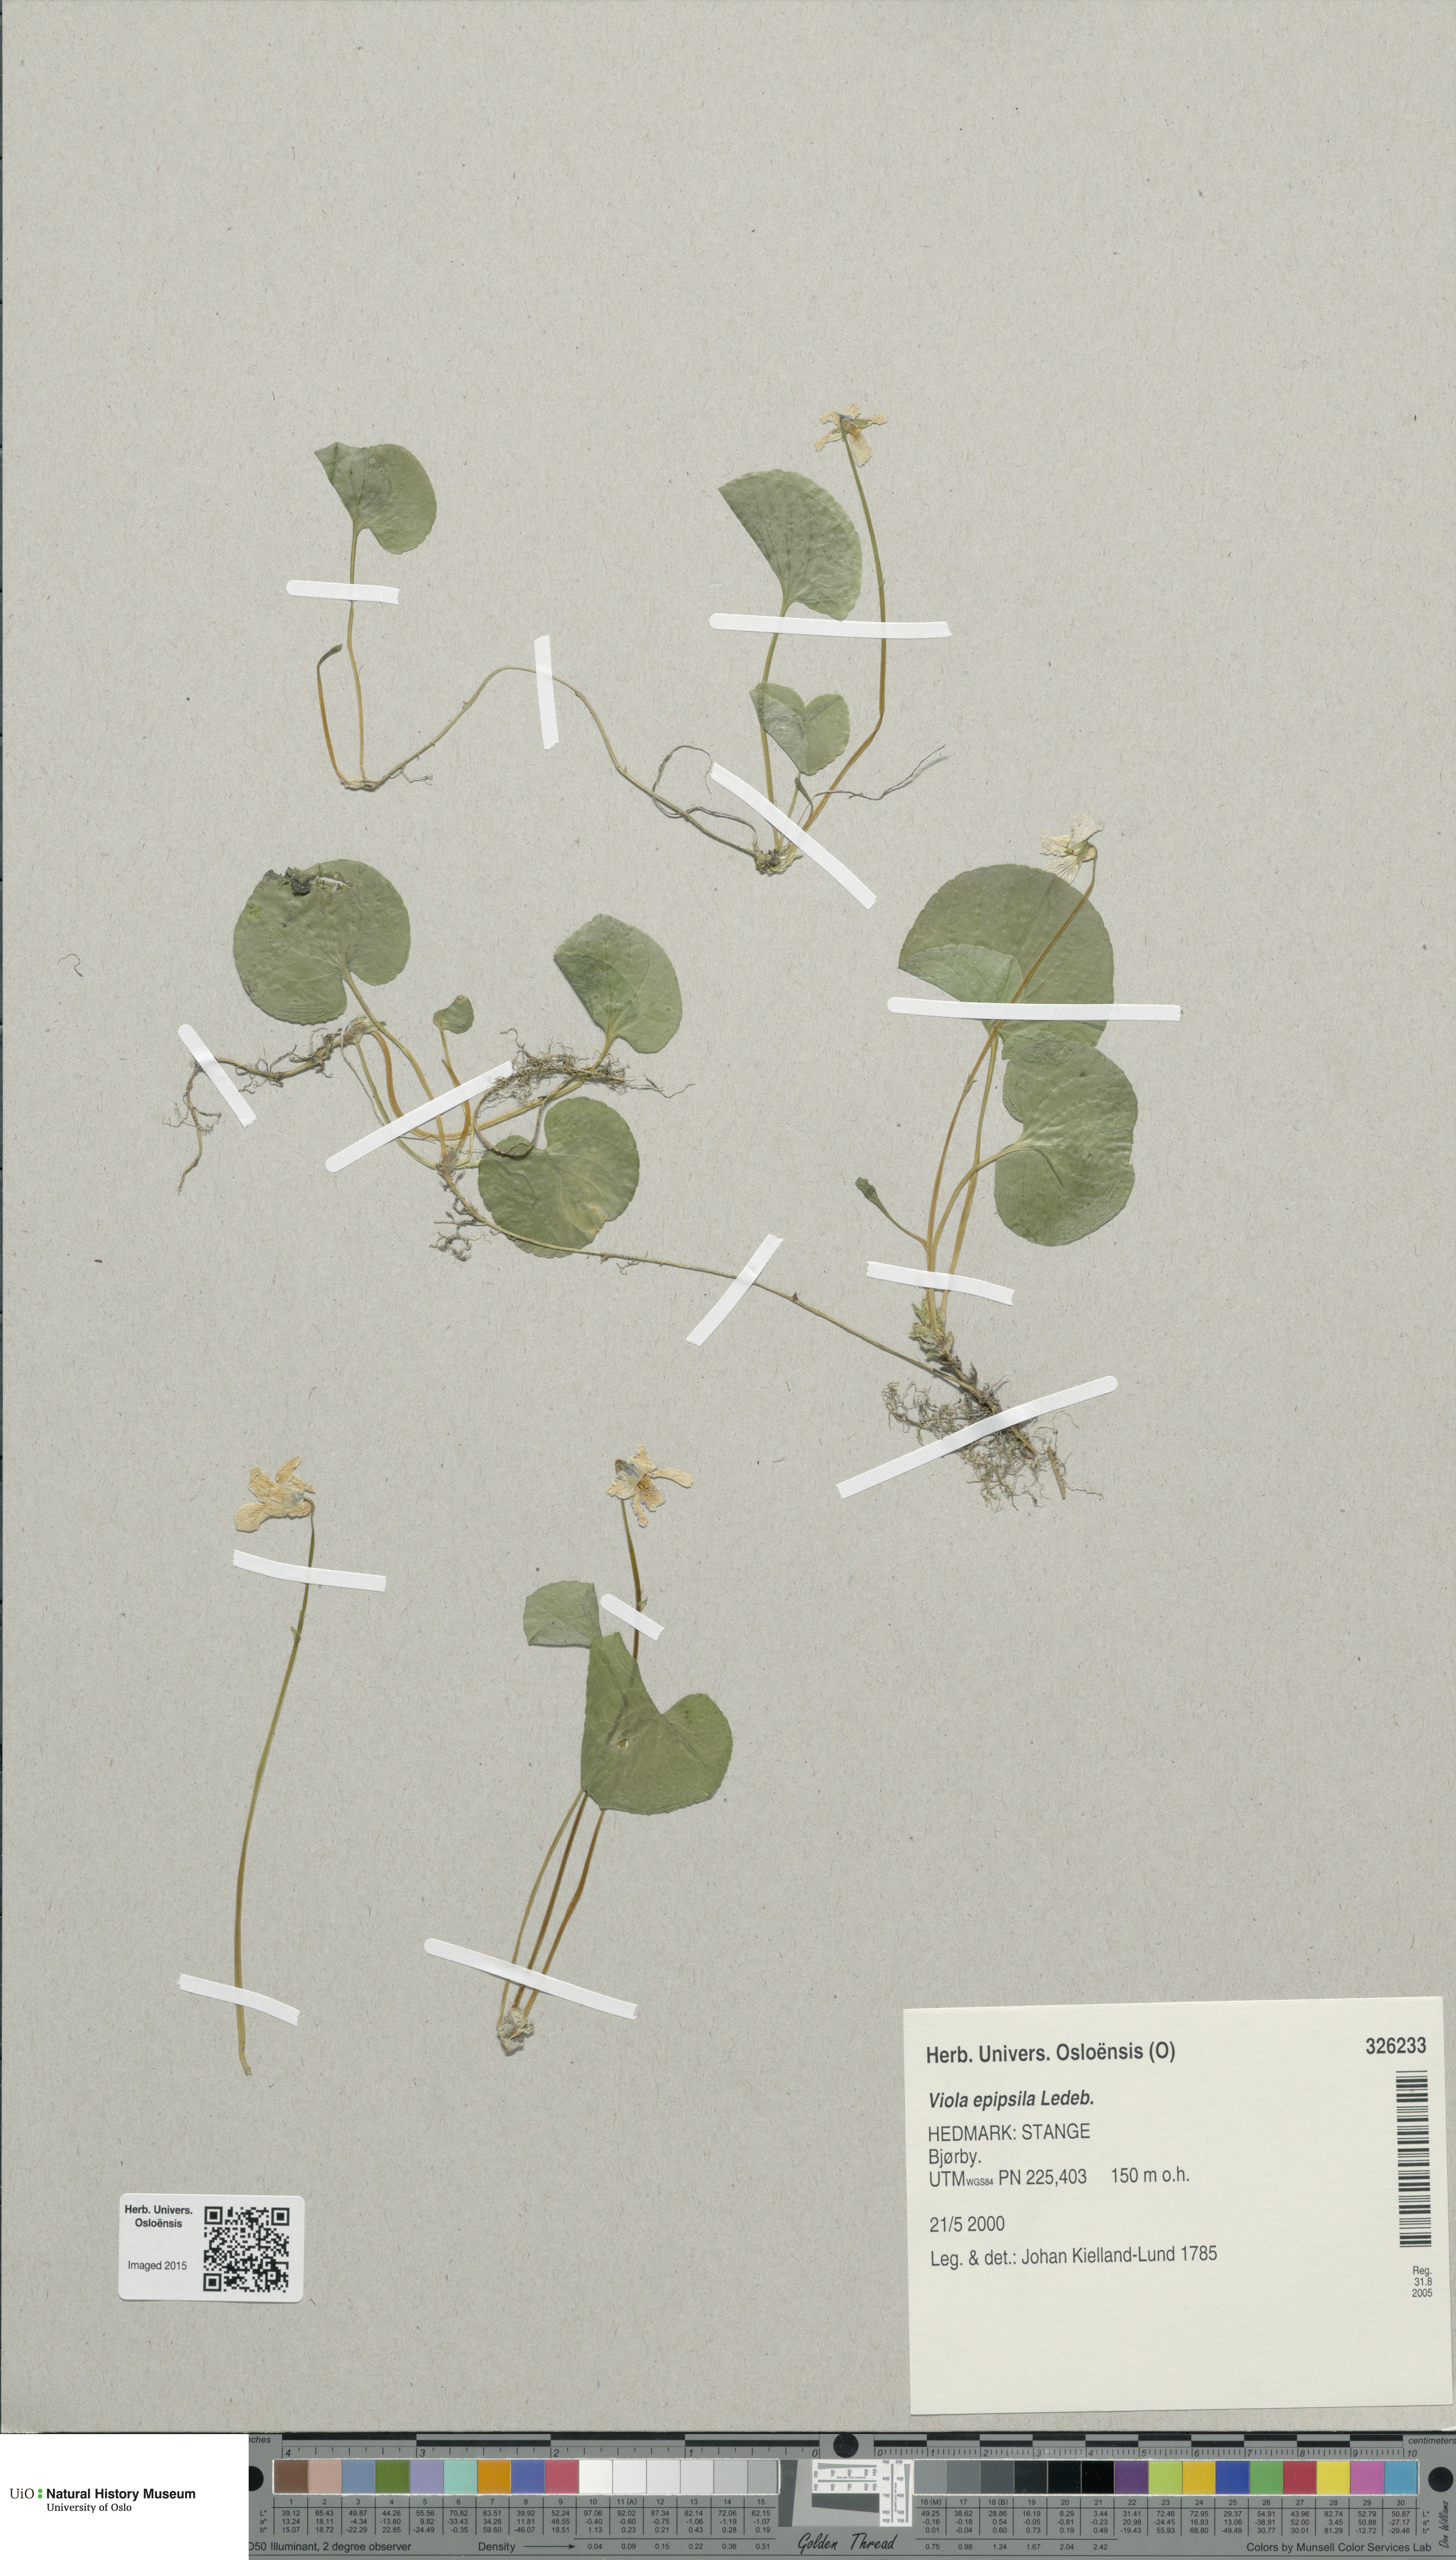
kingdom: Plantae
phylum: Tracheophyta
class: Magnoliopsida
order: Malpighiales
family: Violaceae
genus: Viola
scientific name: Viola epipsila
